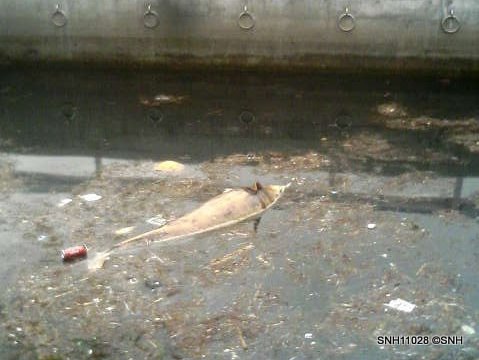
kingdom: Animalia
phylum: Chordata
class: Mammalia
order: Cetacea
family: Delphinidae
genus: Lagenorhynchus
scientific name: Lagenorhynchus obliquidens
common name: Pacific white-sided dolphin
